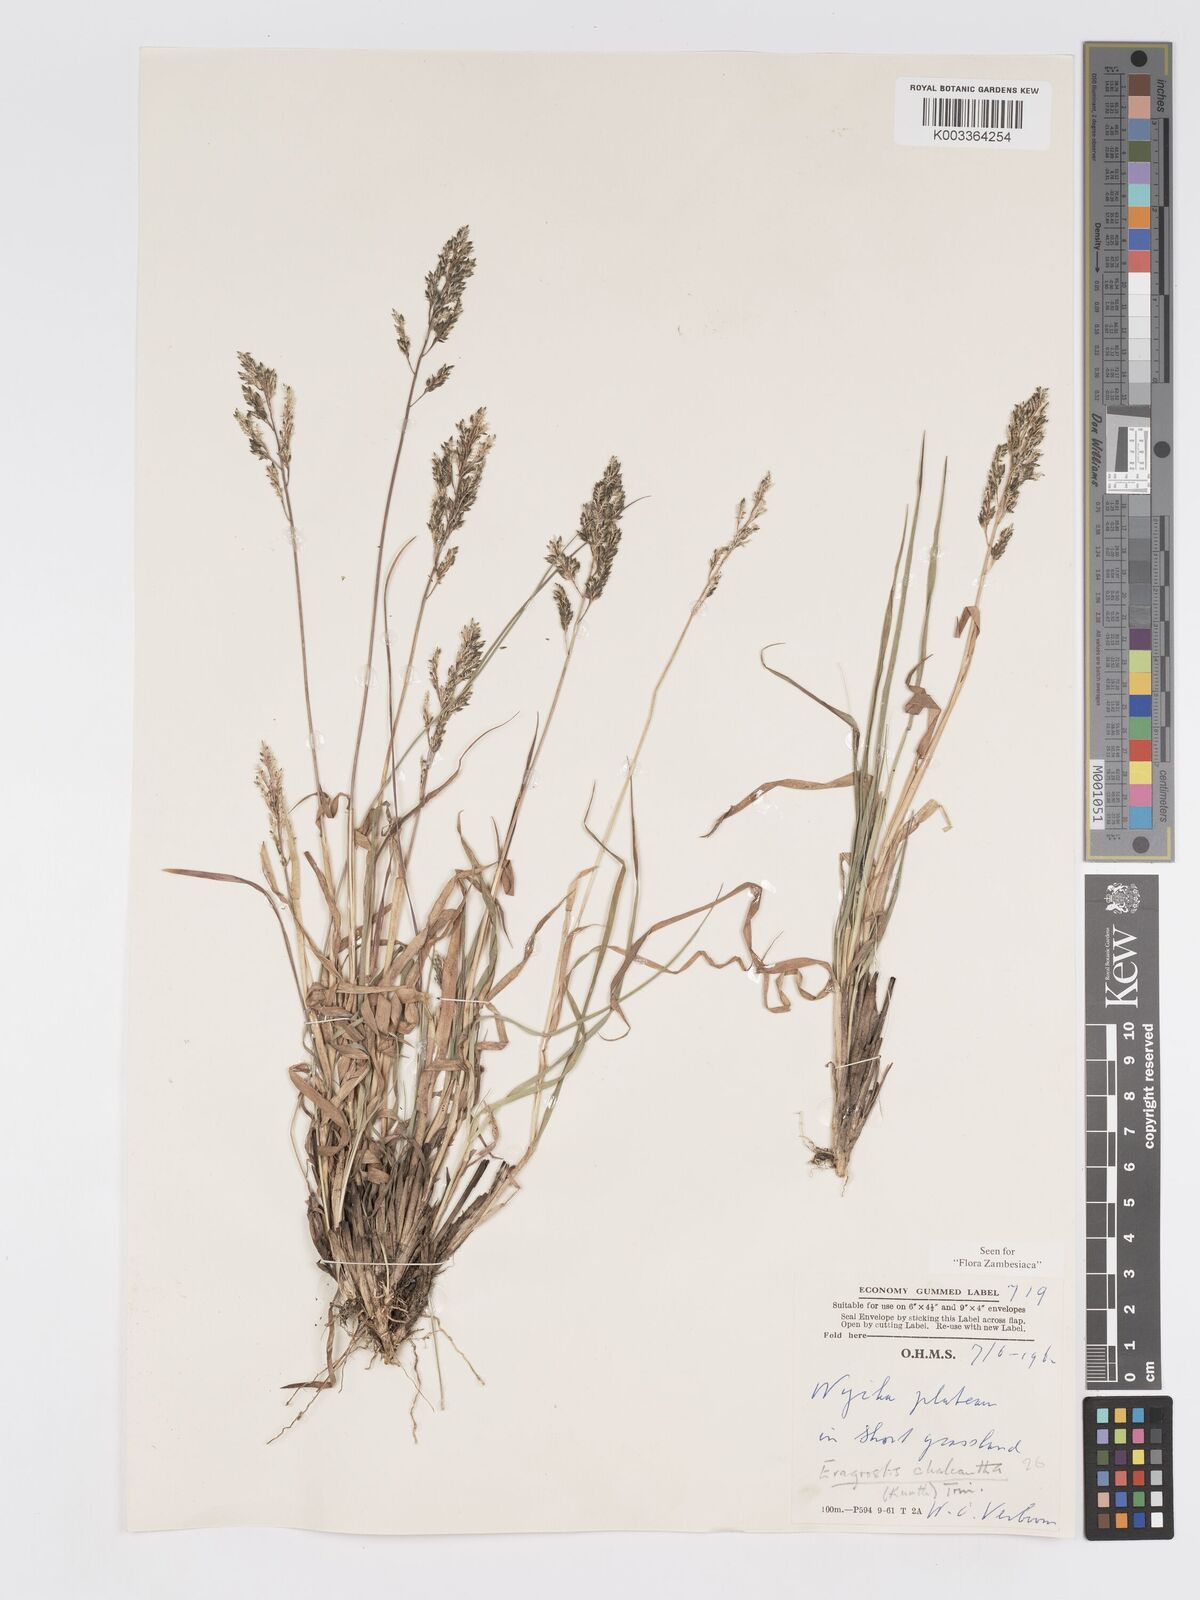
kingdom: Plantae
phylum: Tracheophyta
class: Liliopsida
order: Poales
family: Poaceae
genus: Eragrostis
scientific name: Eragrostis racemosa
